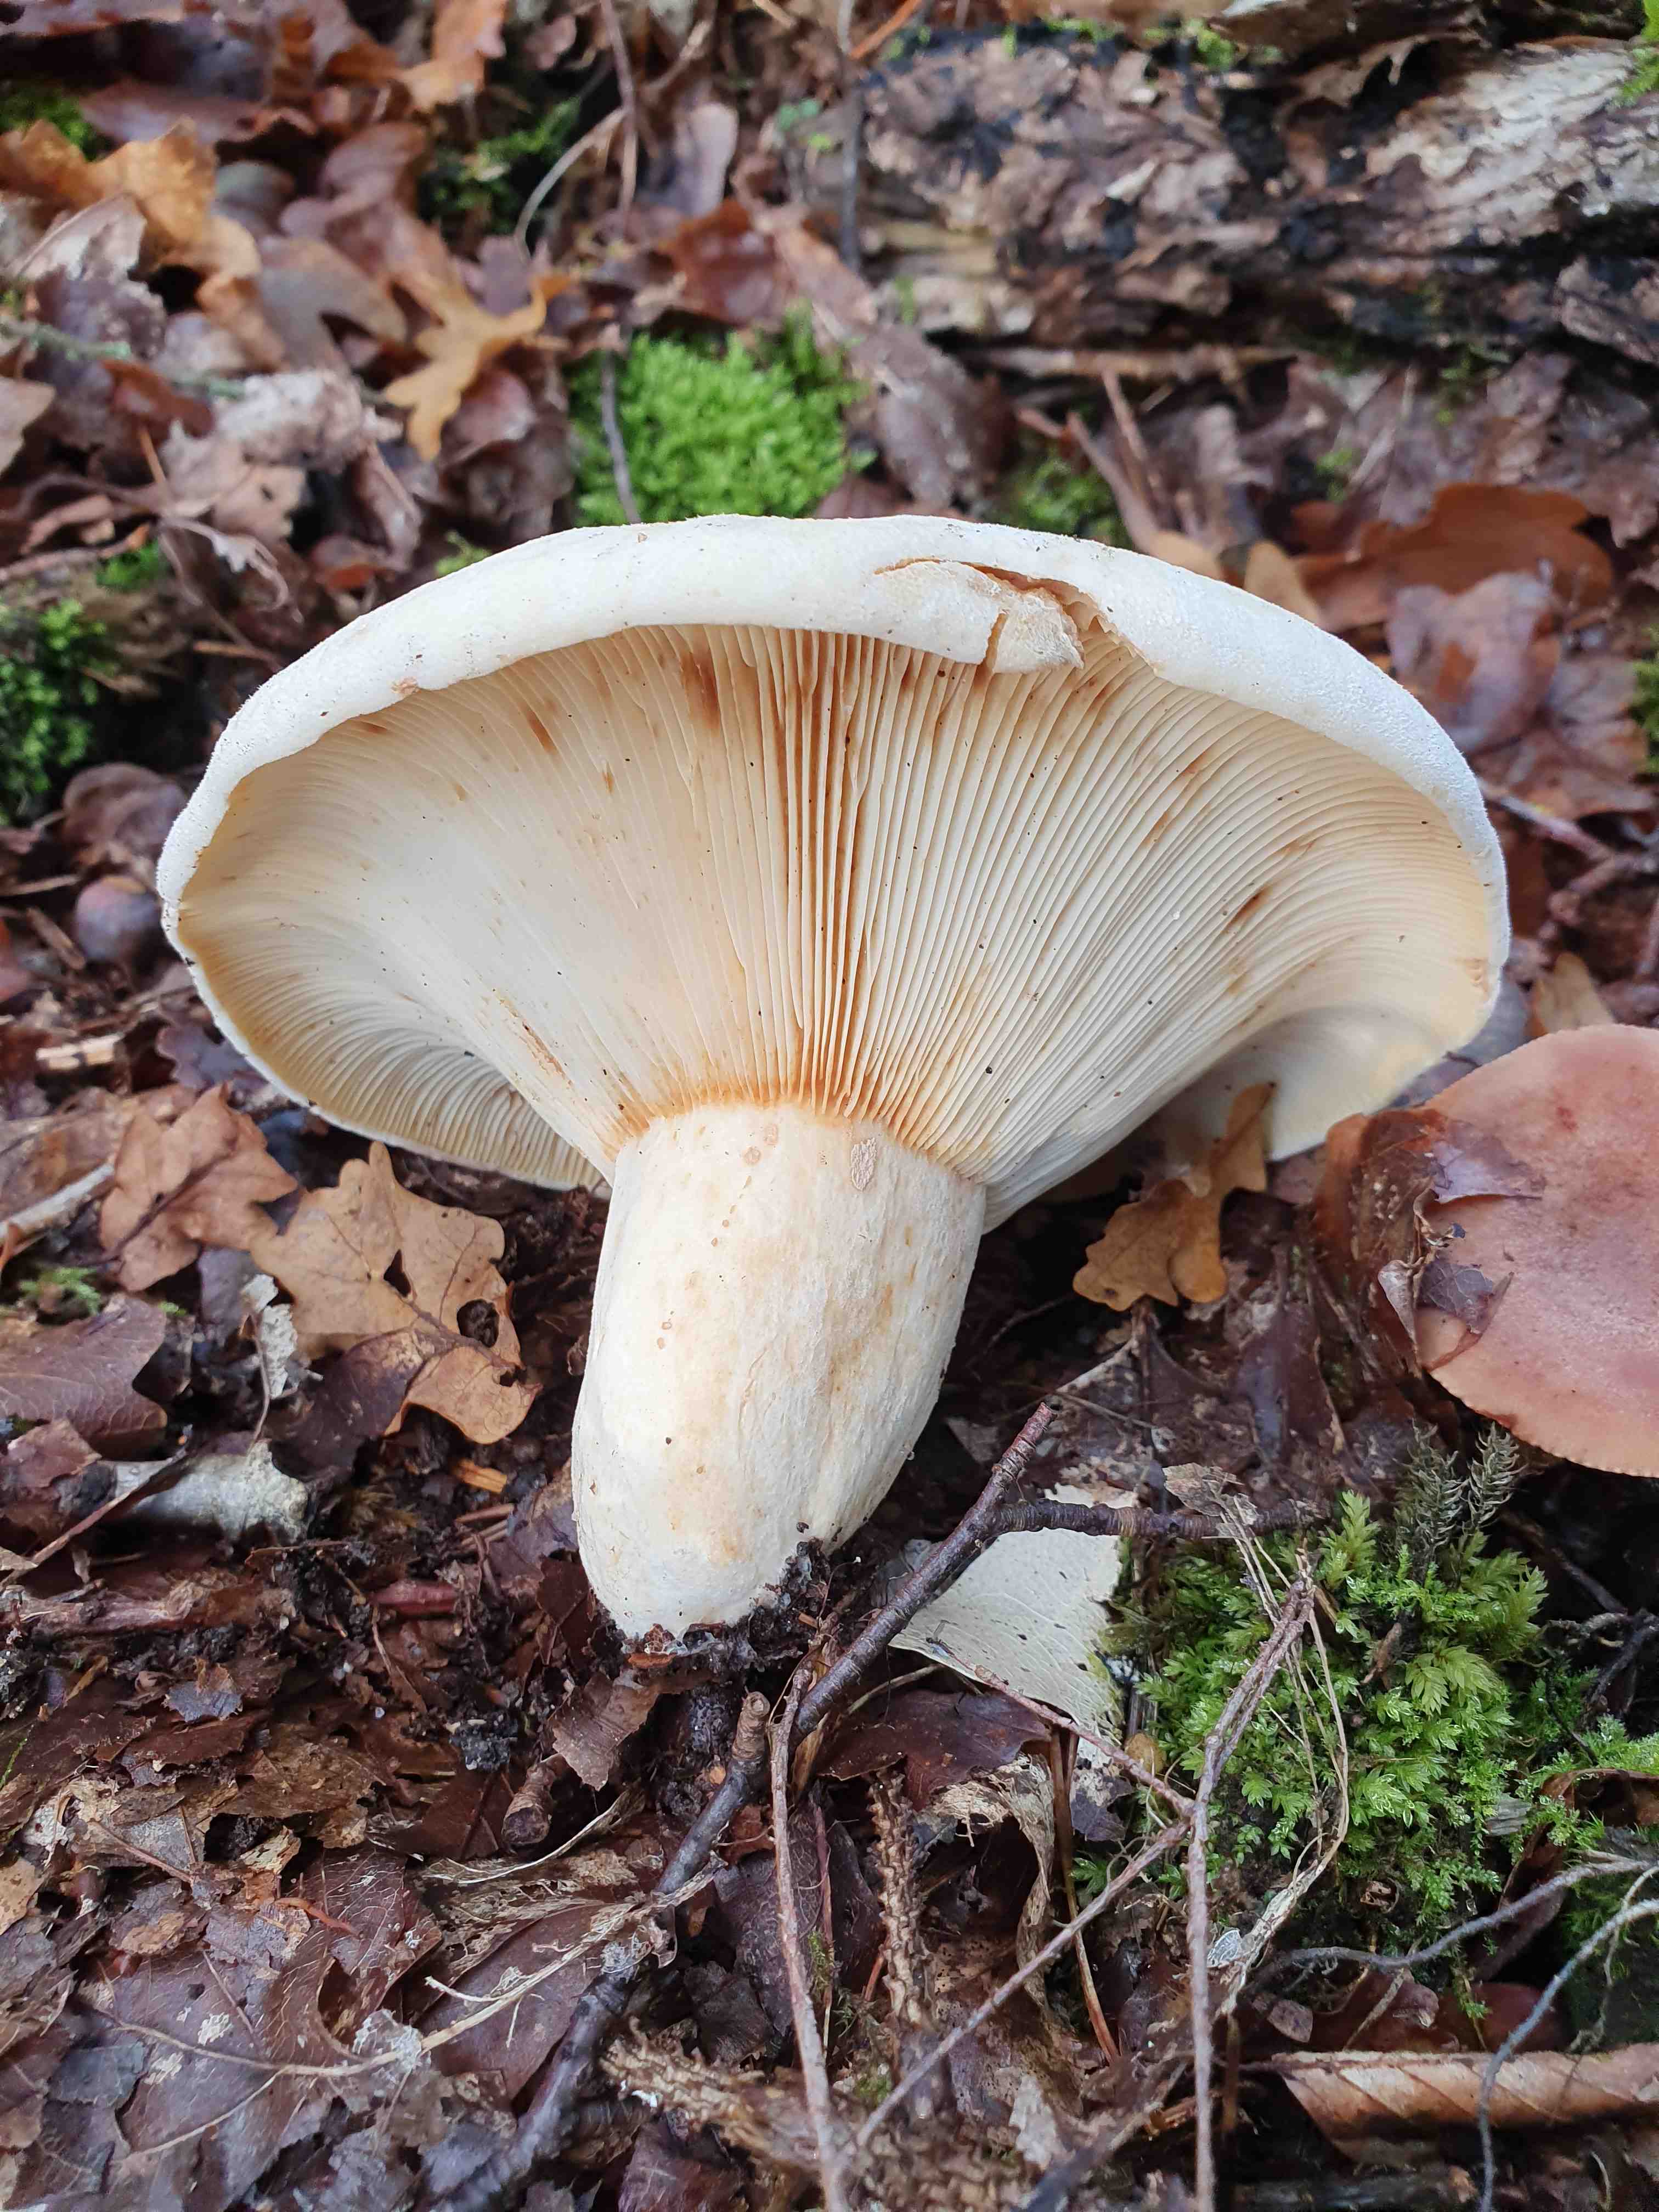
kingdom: Fungi
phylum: Basidiomycota
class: Agaricomycetes
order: Russulales
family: Russulaceae
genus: Lactifluus
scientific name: Lactifluus vellereus
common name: hvidfiltet mælkehat
